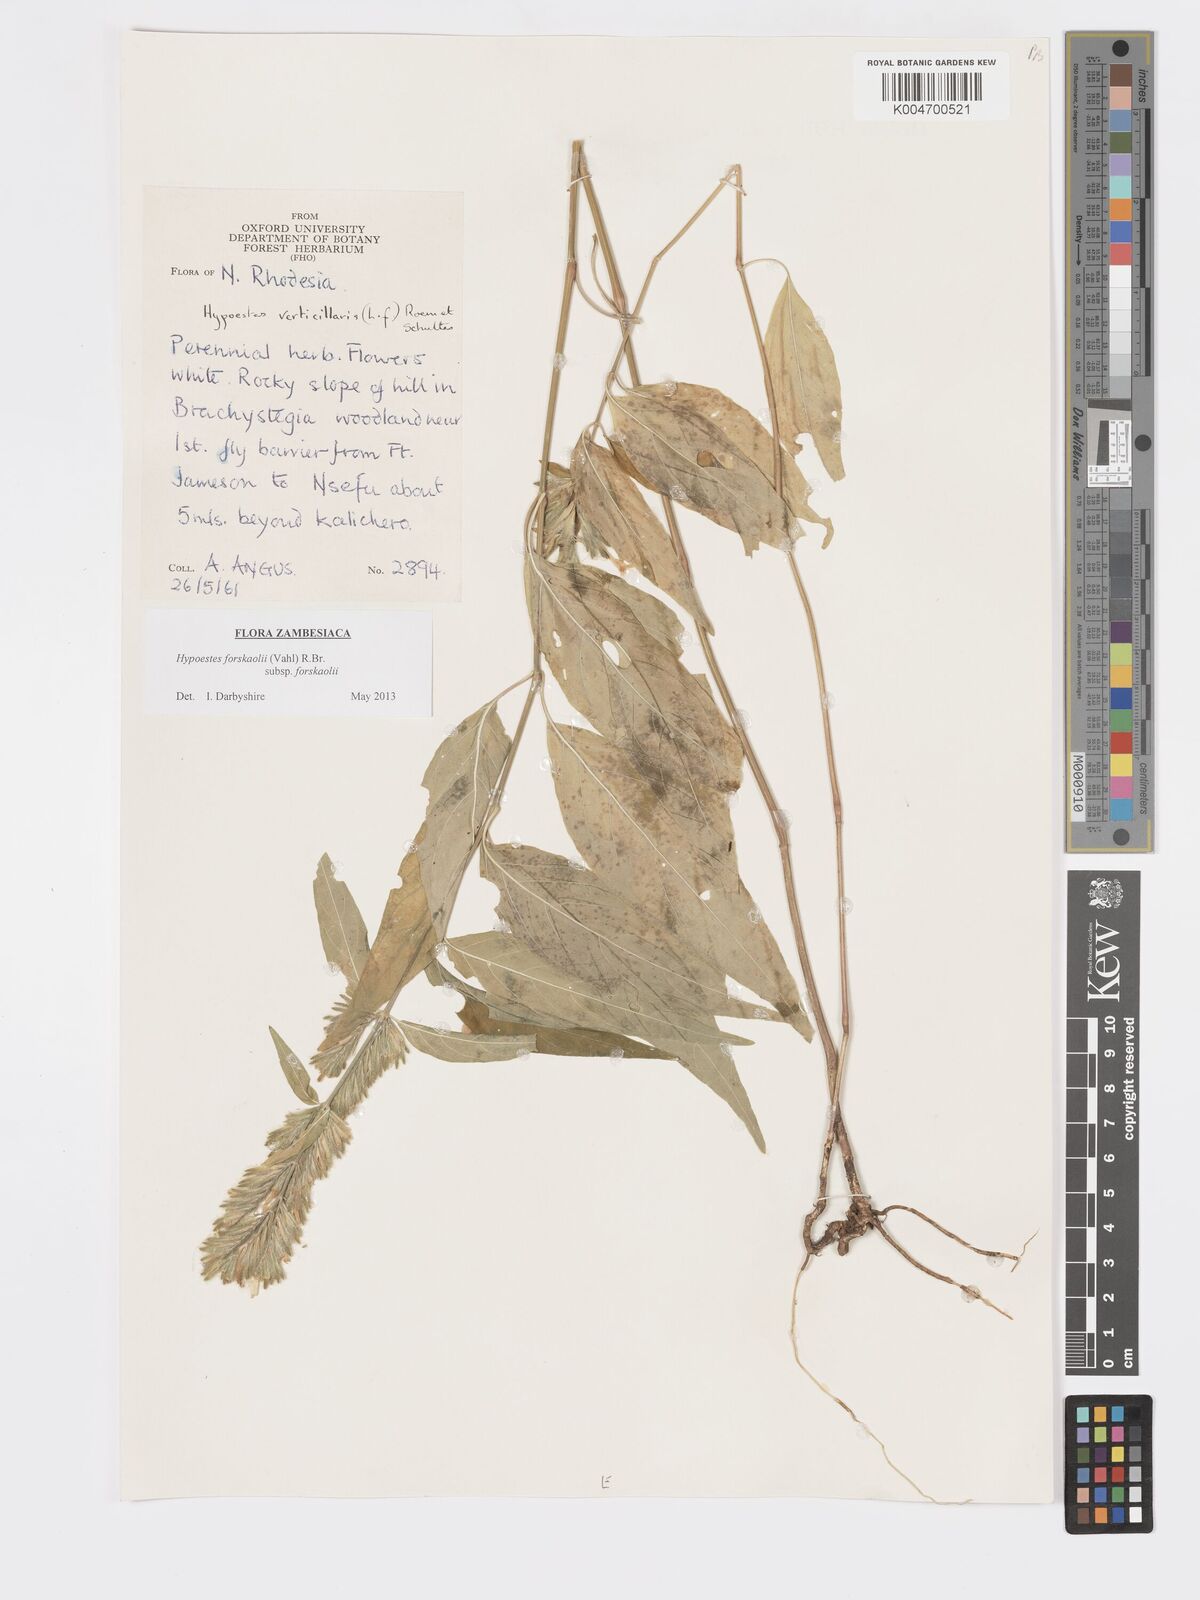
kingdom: Plantae
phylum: Tracheophyta
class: Magnoliopsida
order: Lamiales
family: Acanthaceae
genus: Hypoestes
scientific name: Hypoestes forskaolii
